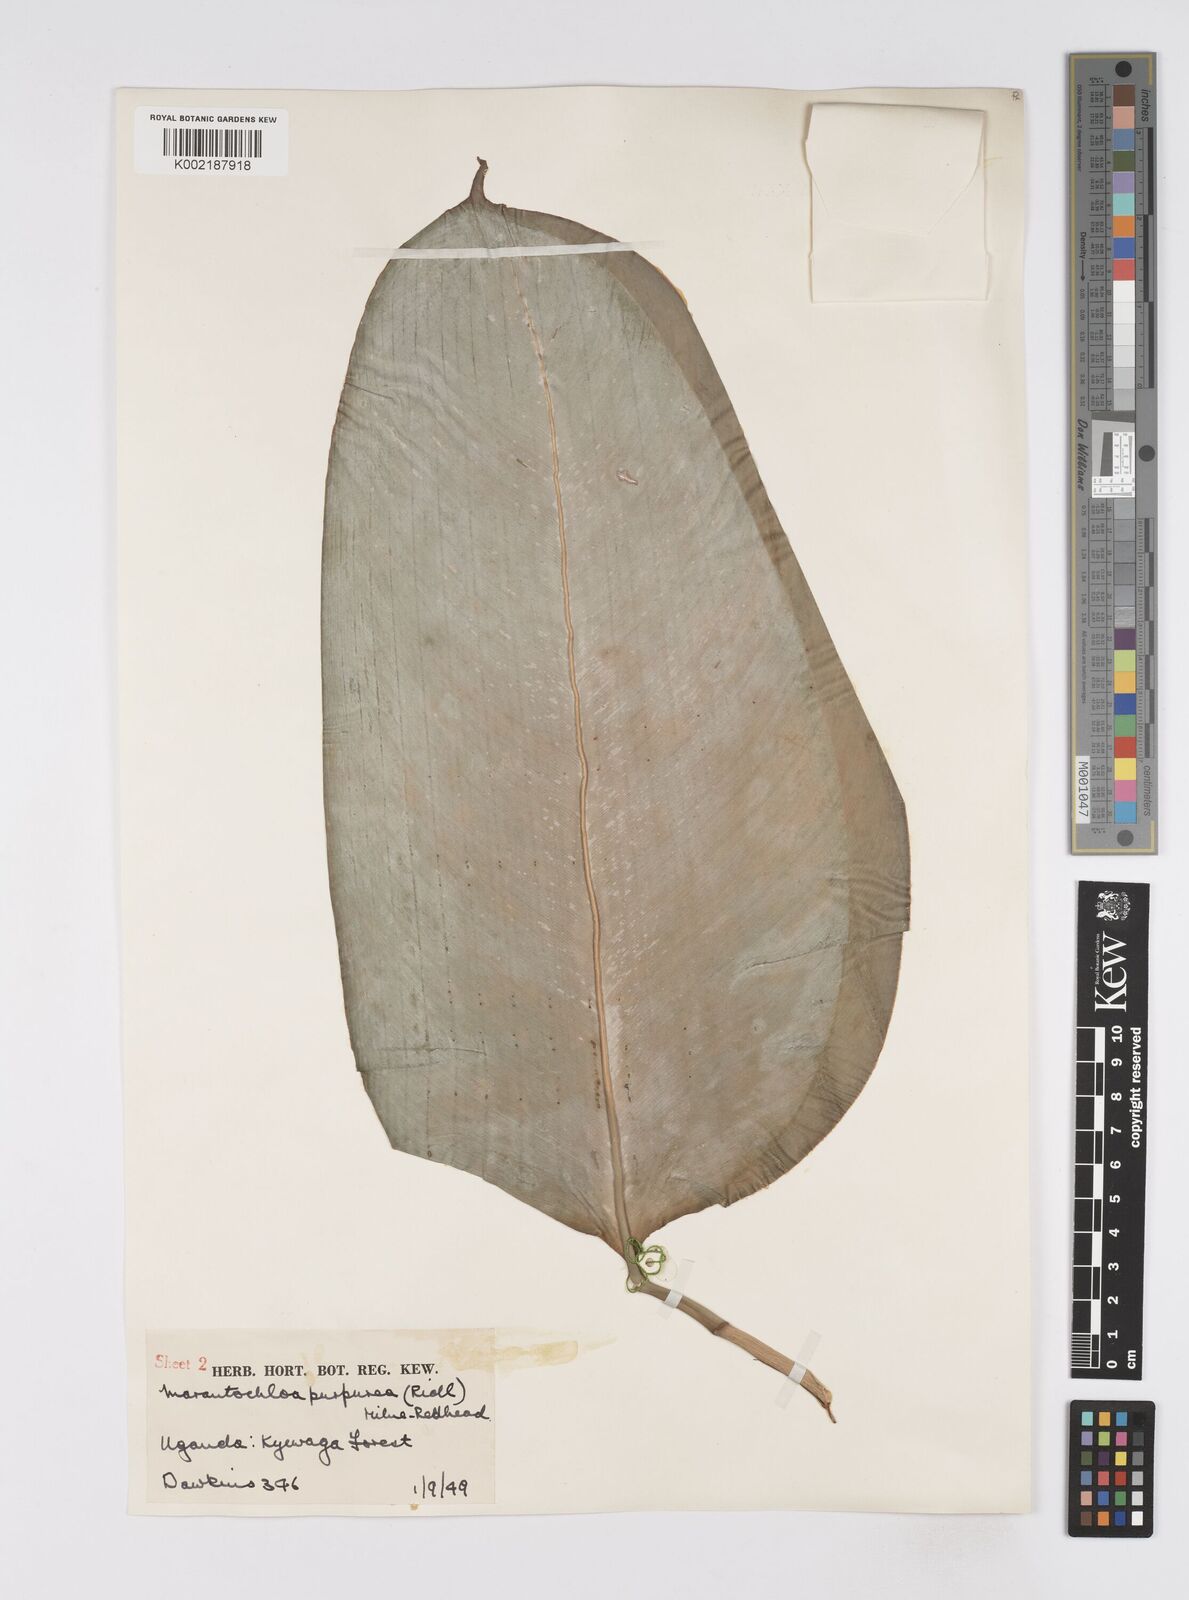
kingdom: Plantae
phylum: Tracheophyta
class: Liliopsida
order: Zingiberales
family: Marantaceae
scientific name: Marantaceae
